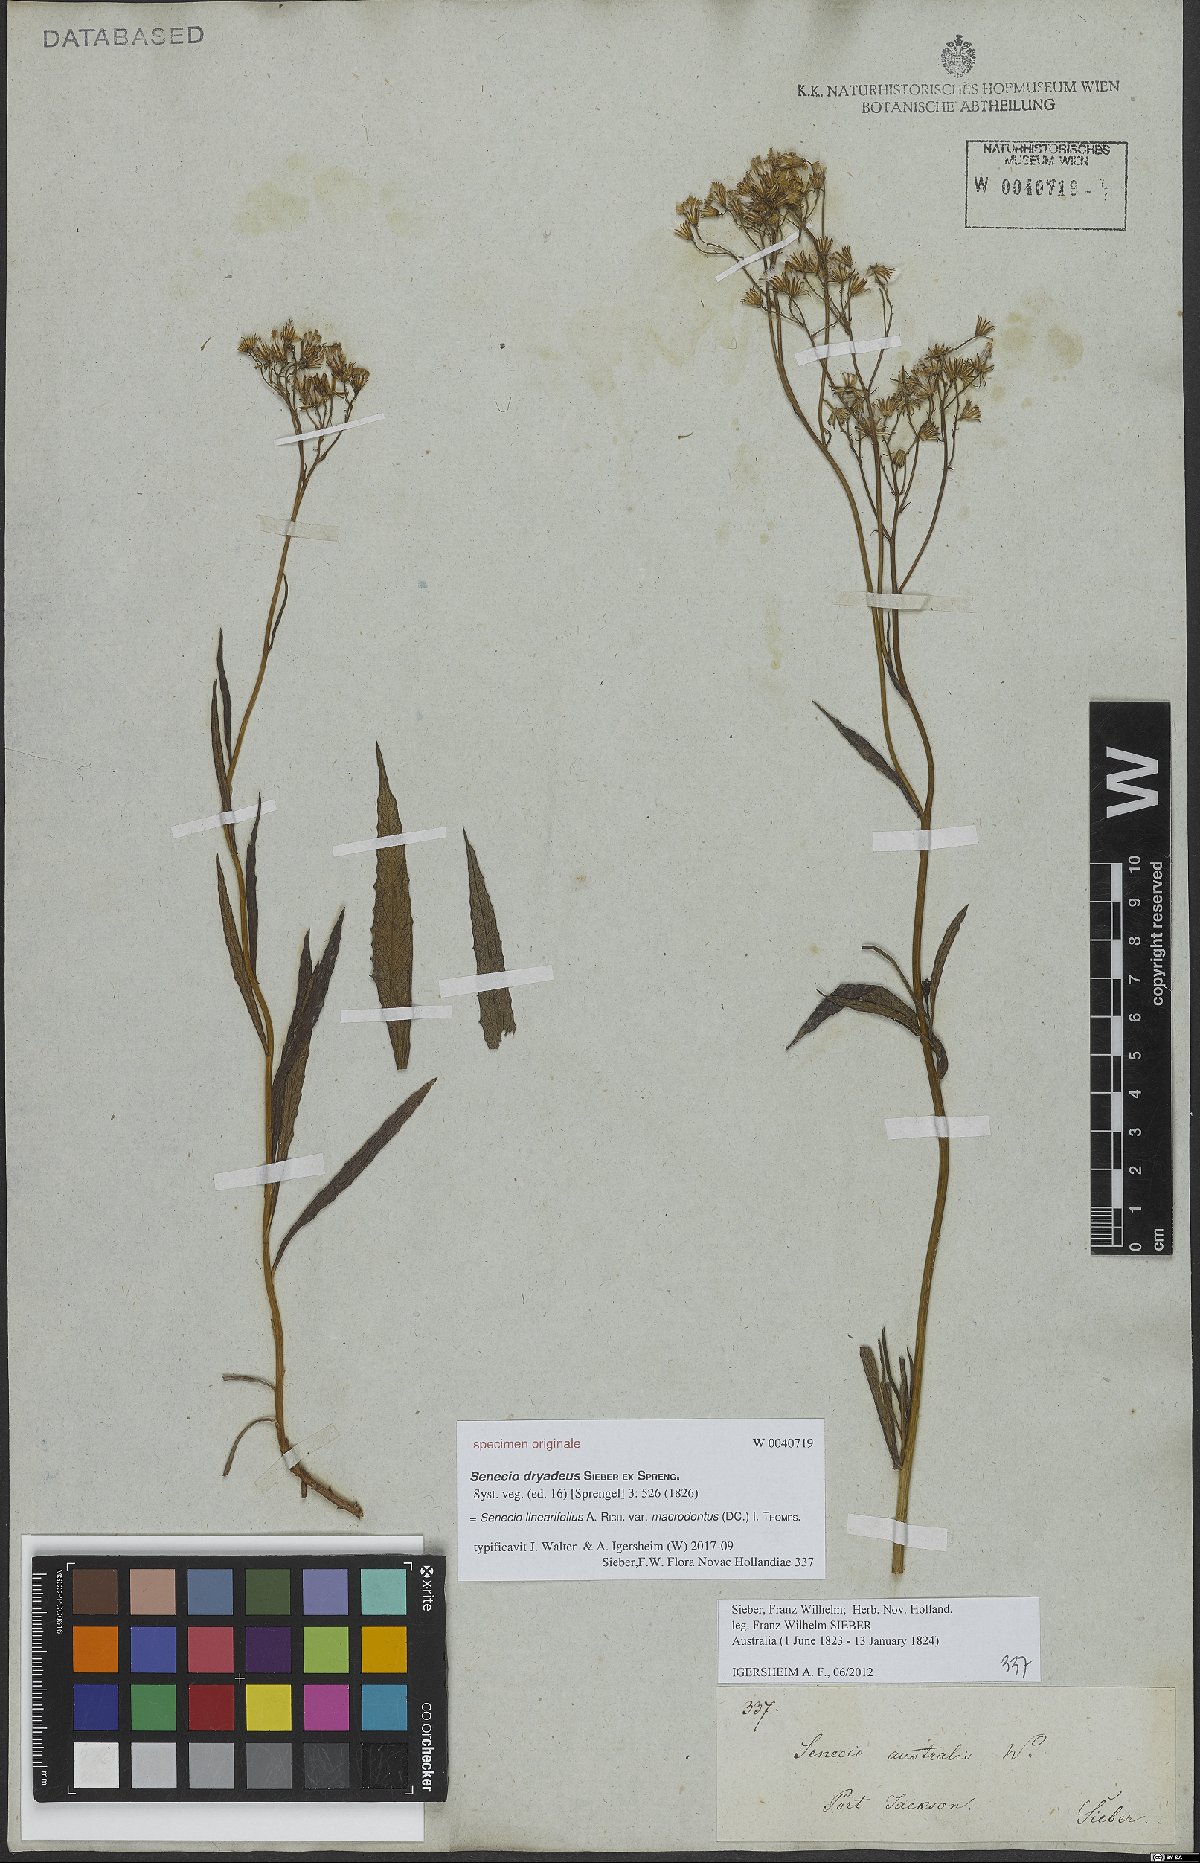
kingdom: Plantae
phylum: Tracheophyta
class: Magnoliopsida
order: Asterales
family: Asteraceae
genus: Senecio
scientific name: Senecio linearifolius
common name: Fireweed groundsel
